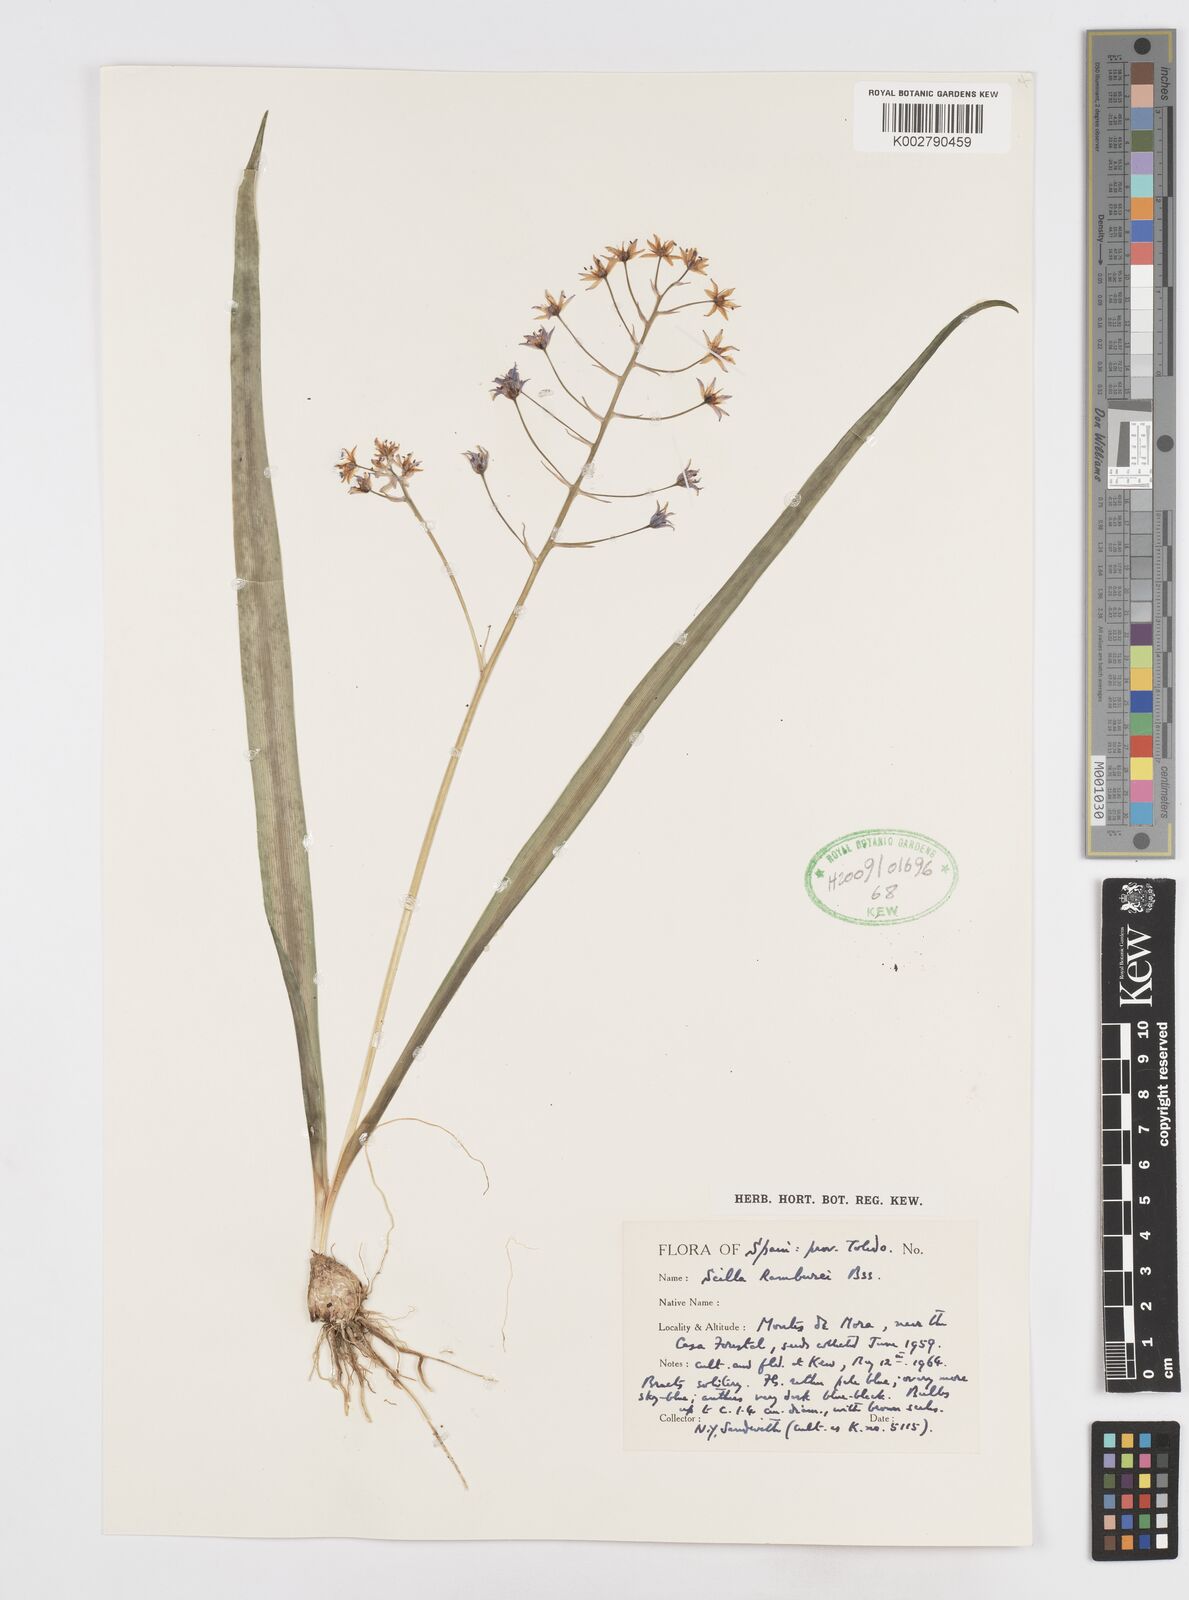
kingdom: Plantae
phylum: Tracheophyta
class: Liliopsida
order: Asparagales
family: Asparagaceae
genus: Scilla
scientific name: Scilla verna
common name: Spring squill
